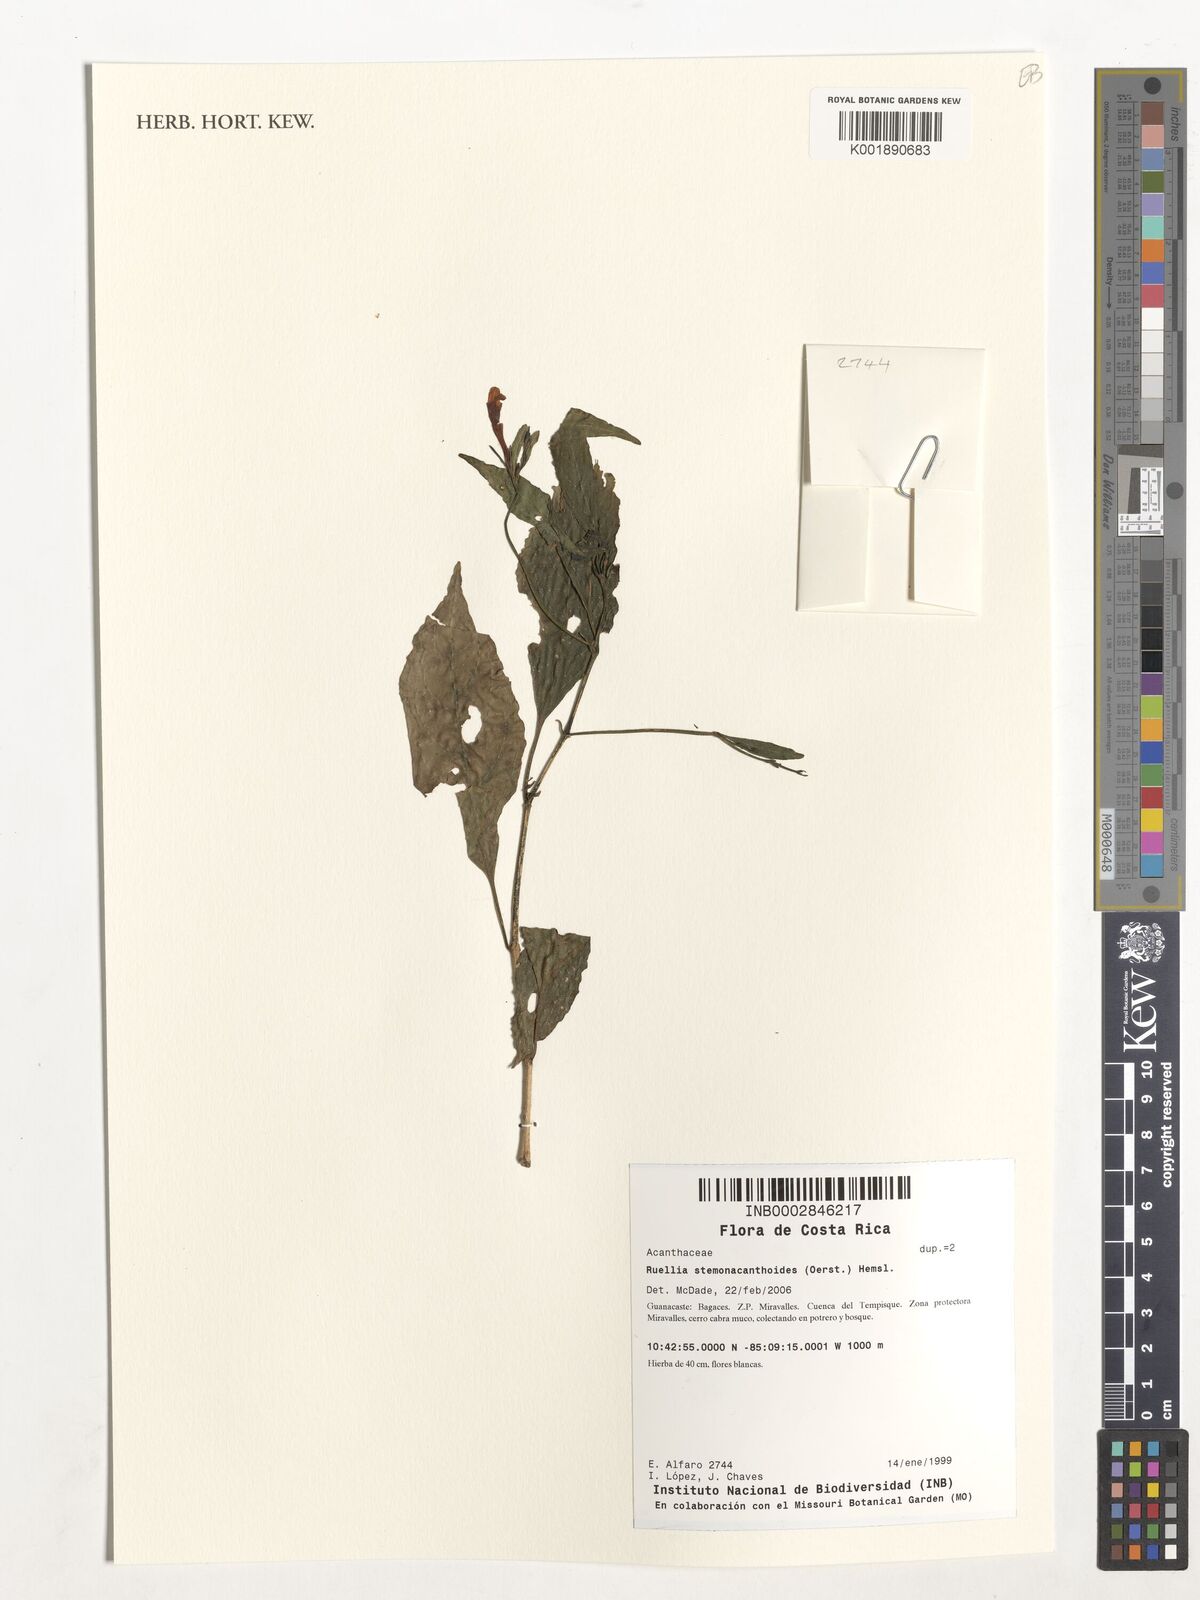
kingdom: Plantae
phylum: Tracheophyta
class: Magnoliopsida
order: Lamiales
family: Acanthaceae
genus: Ruellia
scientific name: Ruellia stemonacanthoides
